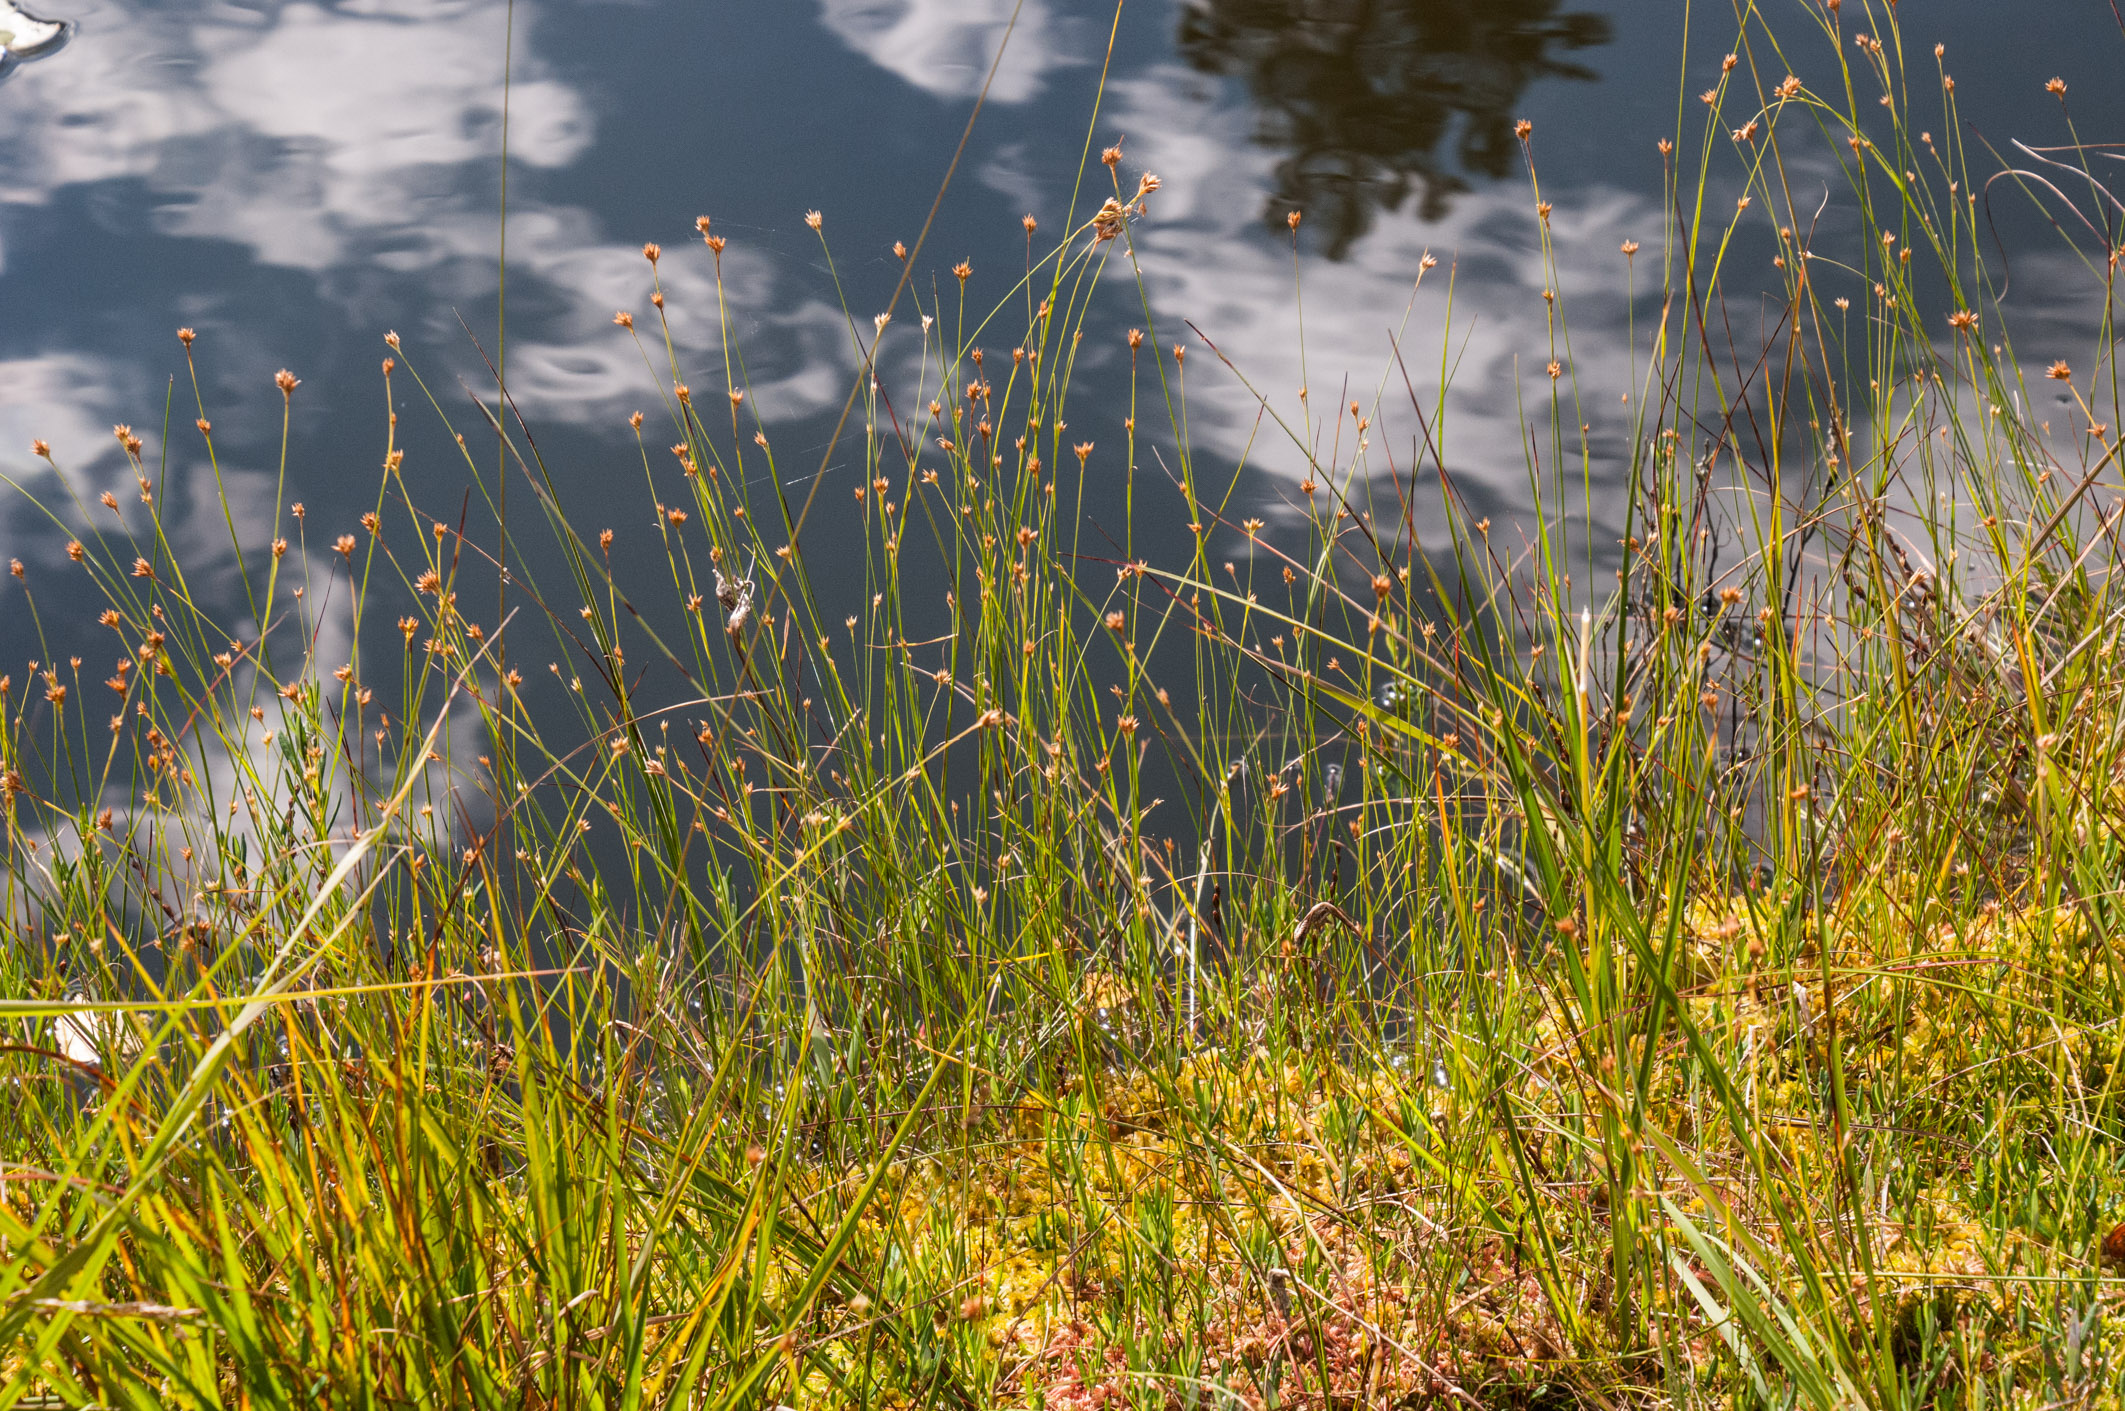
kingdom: Plantae
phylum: Tracheophyta
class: Liliopsida
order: Poales
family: Cyperaceae
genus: Rhynchospora
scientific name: Rhynchospora alba
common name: White beak-sedge
